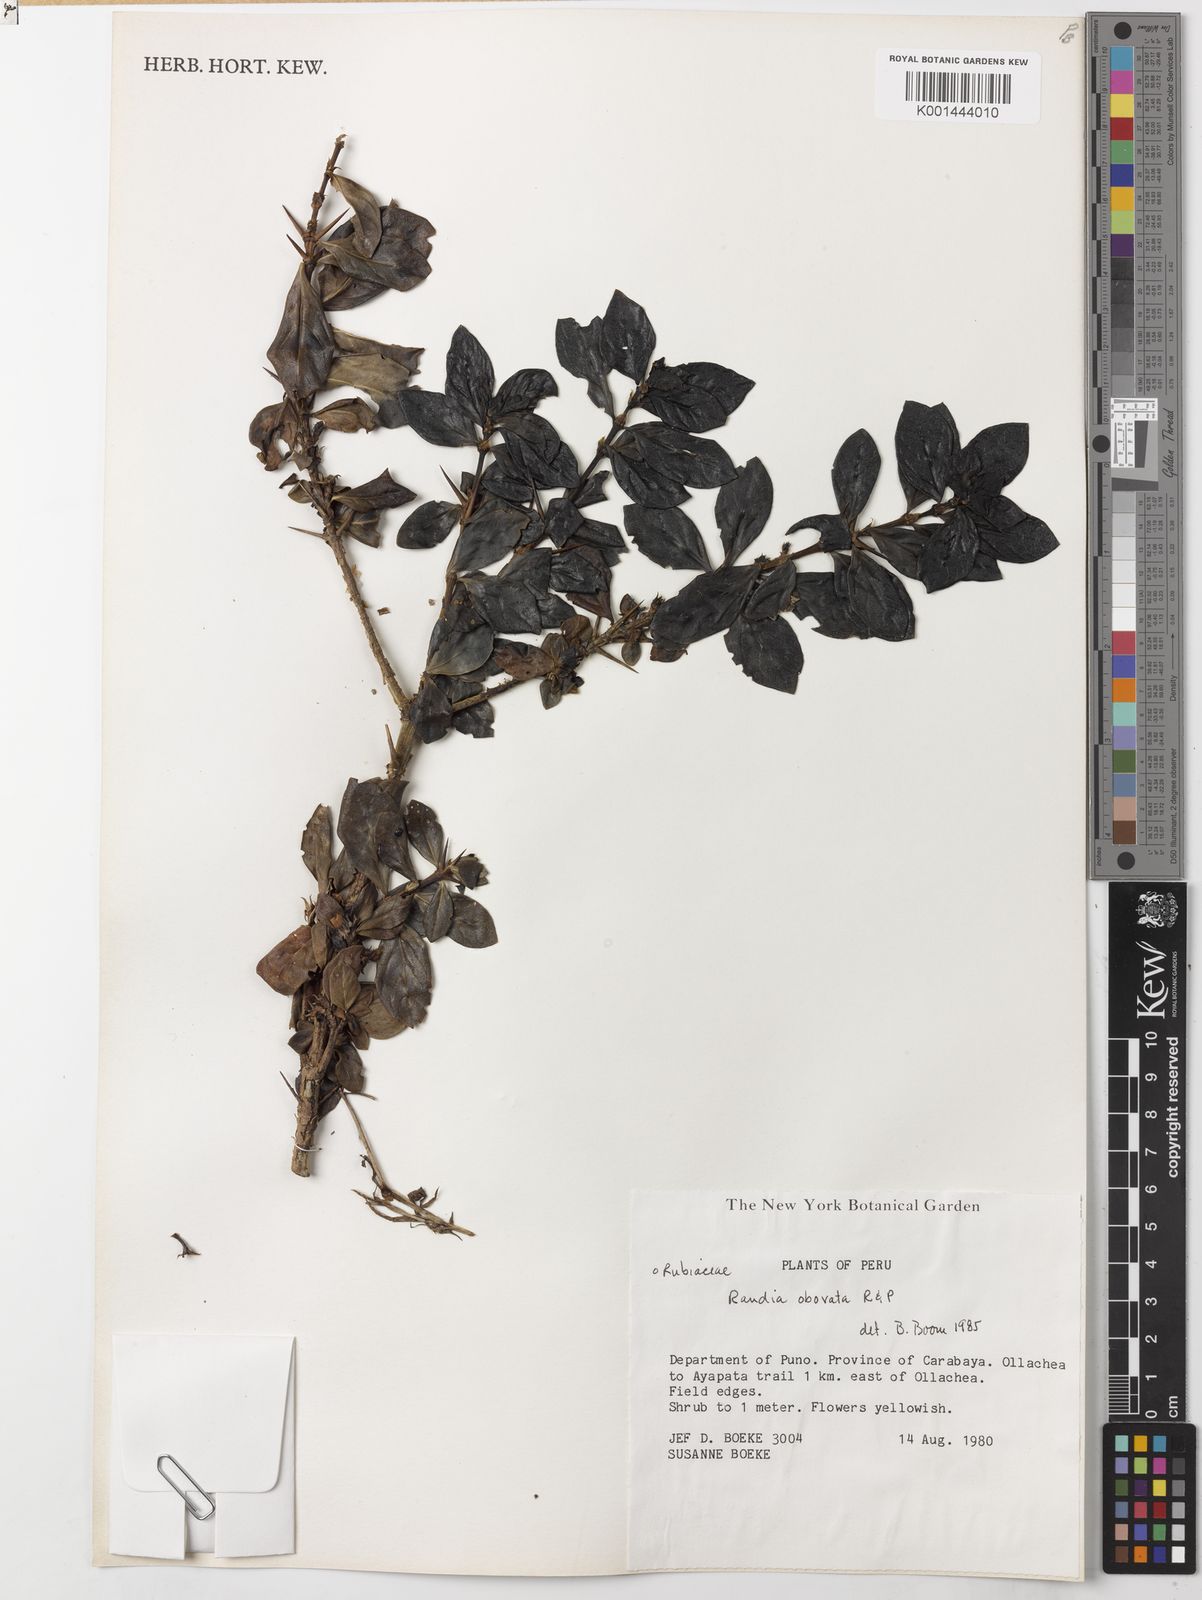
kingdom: Plantae
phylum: Tracheophyta
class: Magnoliopsida
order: Gentianales
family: Rubiaceae
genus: Randia
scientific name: Randia obovata
